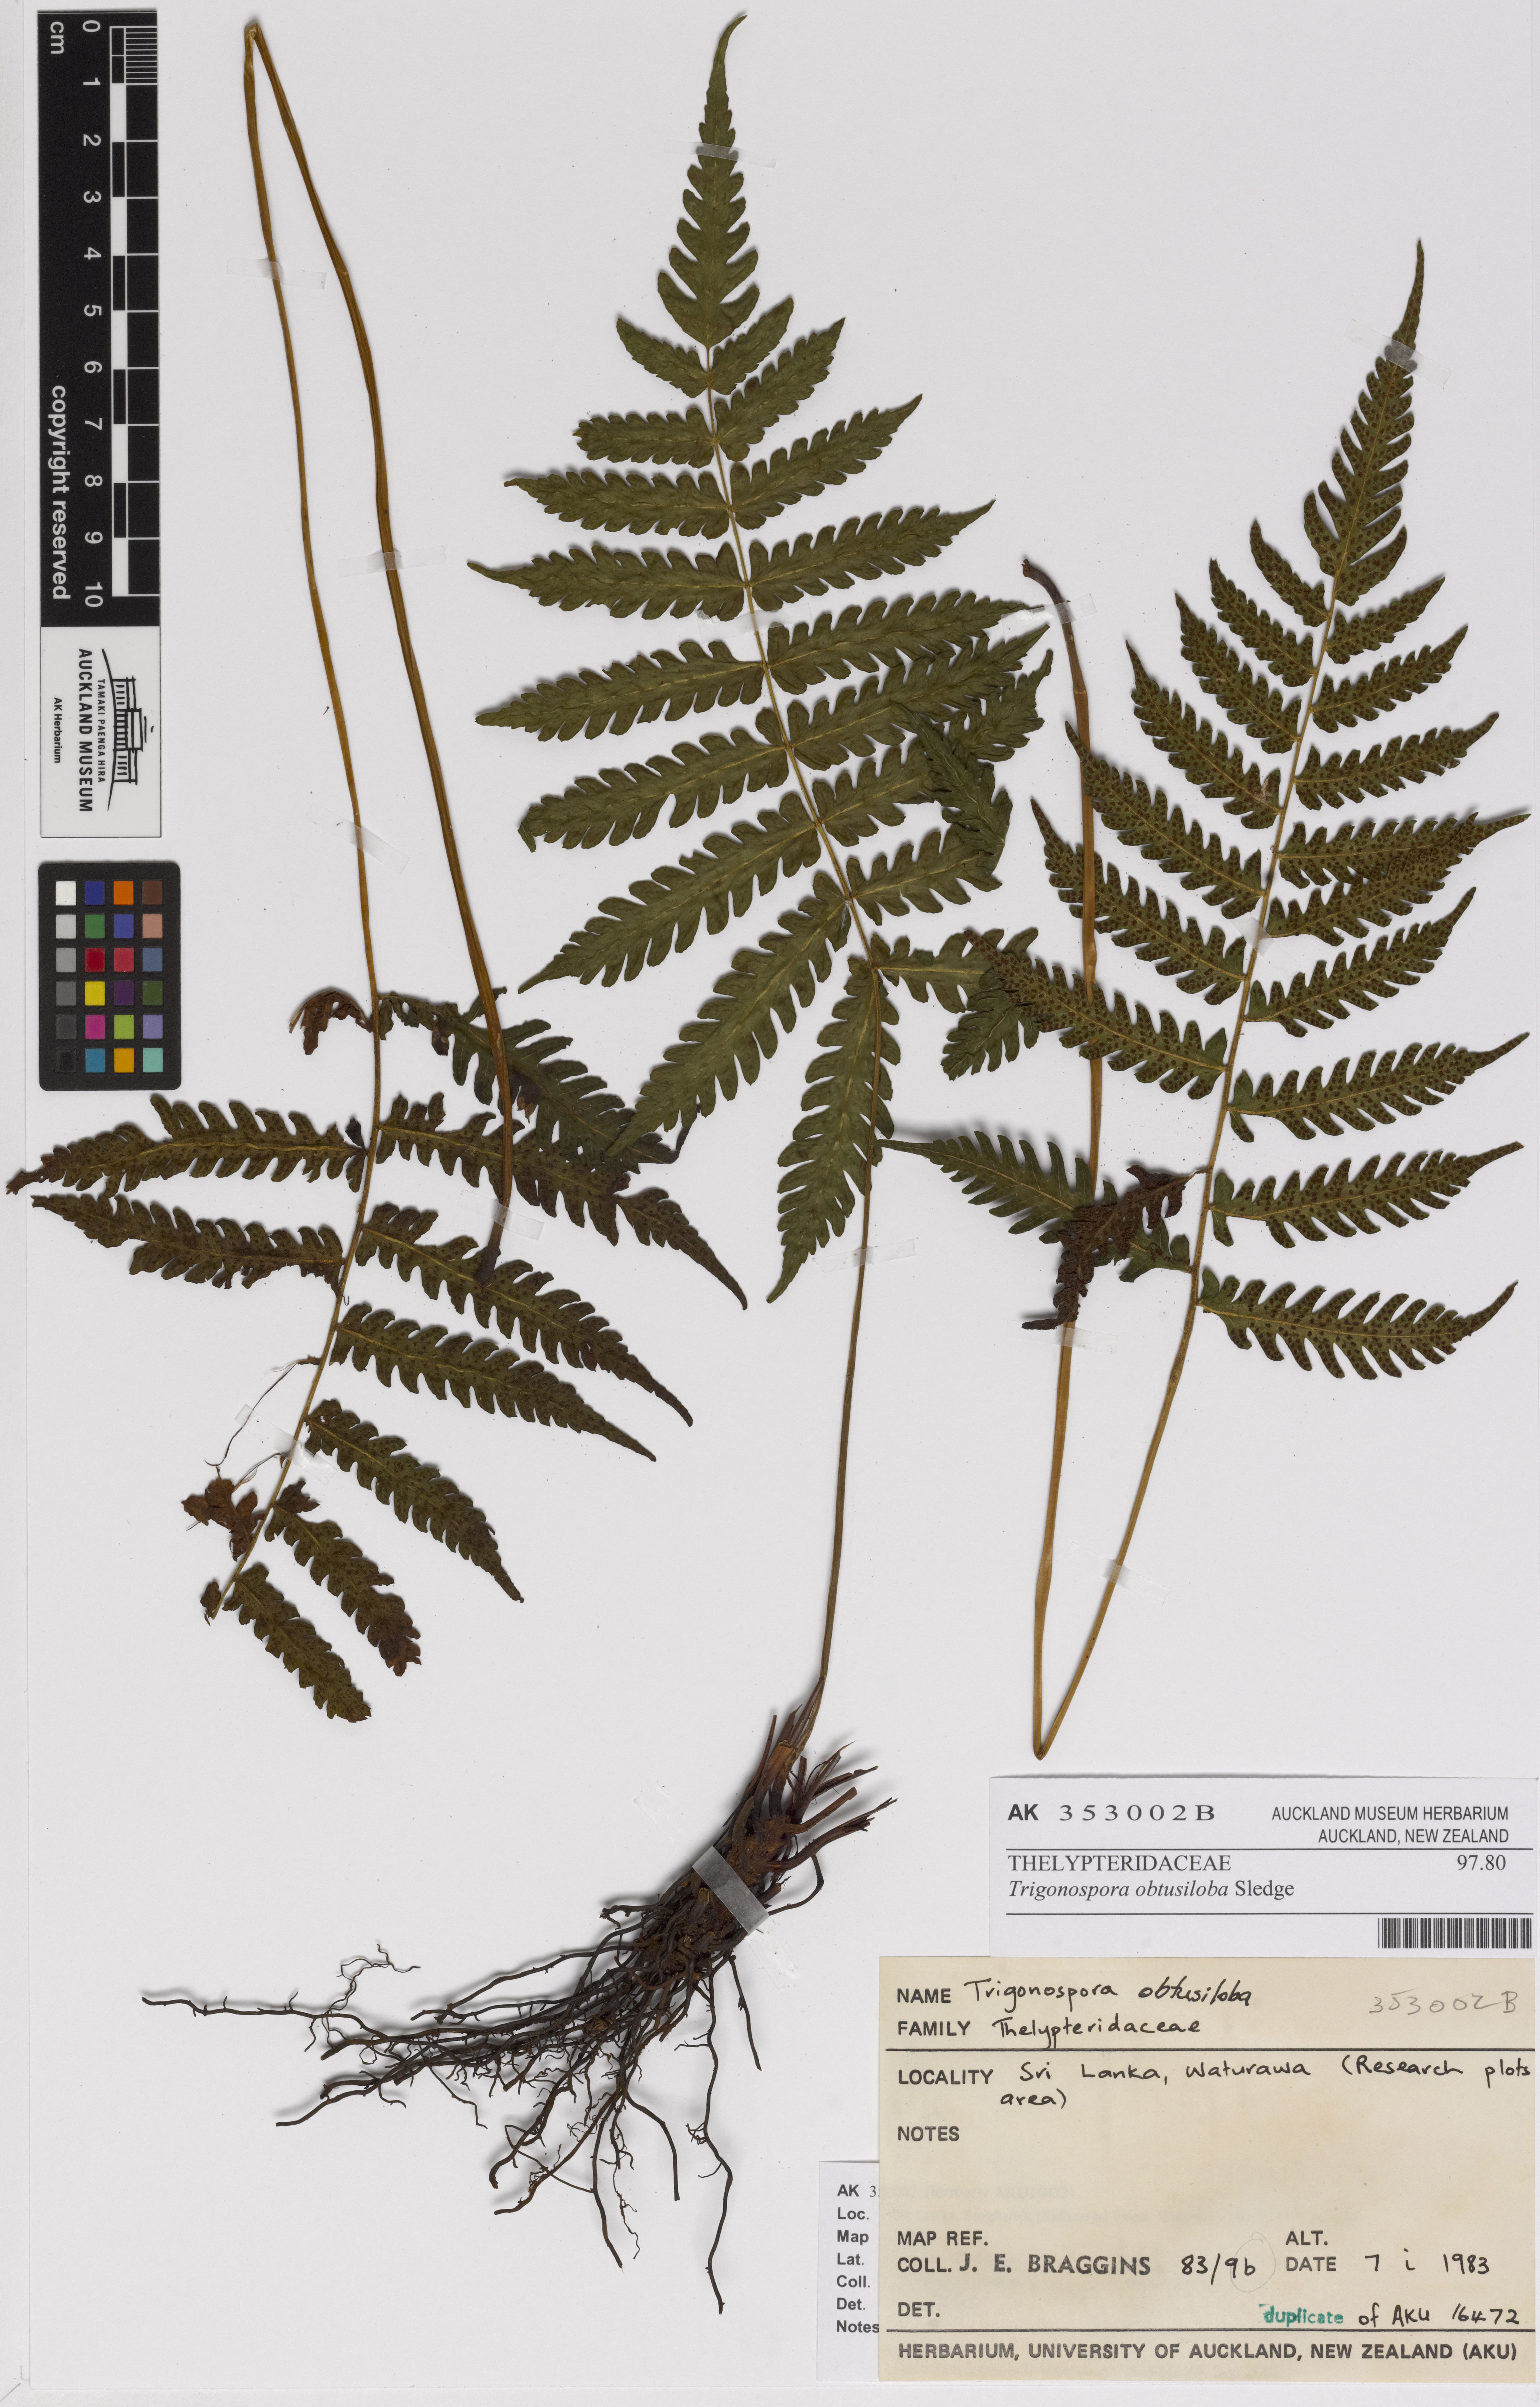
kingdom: Plantae
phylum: Tracheophyta
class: Polypodiopsida
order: Polypodiales
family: Thelypteridaceae
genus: Trigonospora
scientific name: Trigonospora caudipinna
